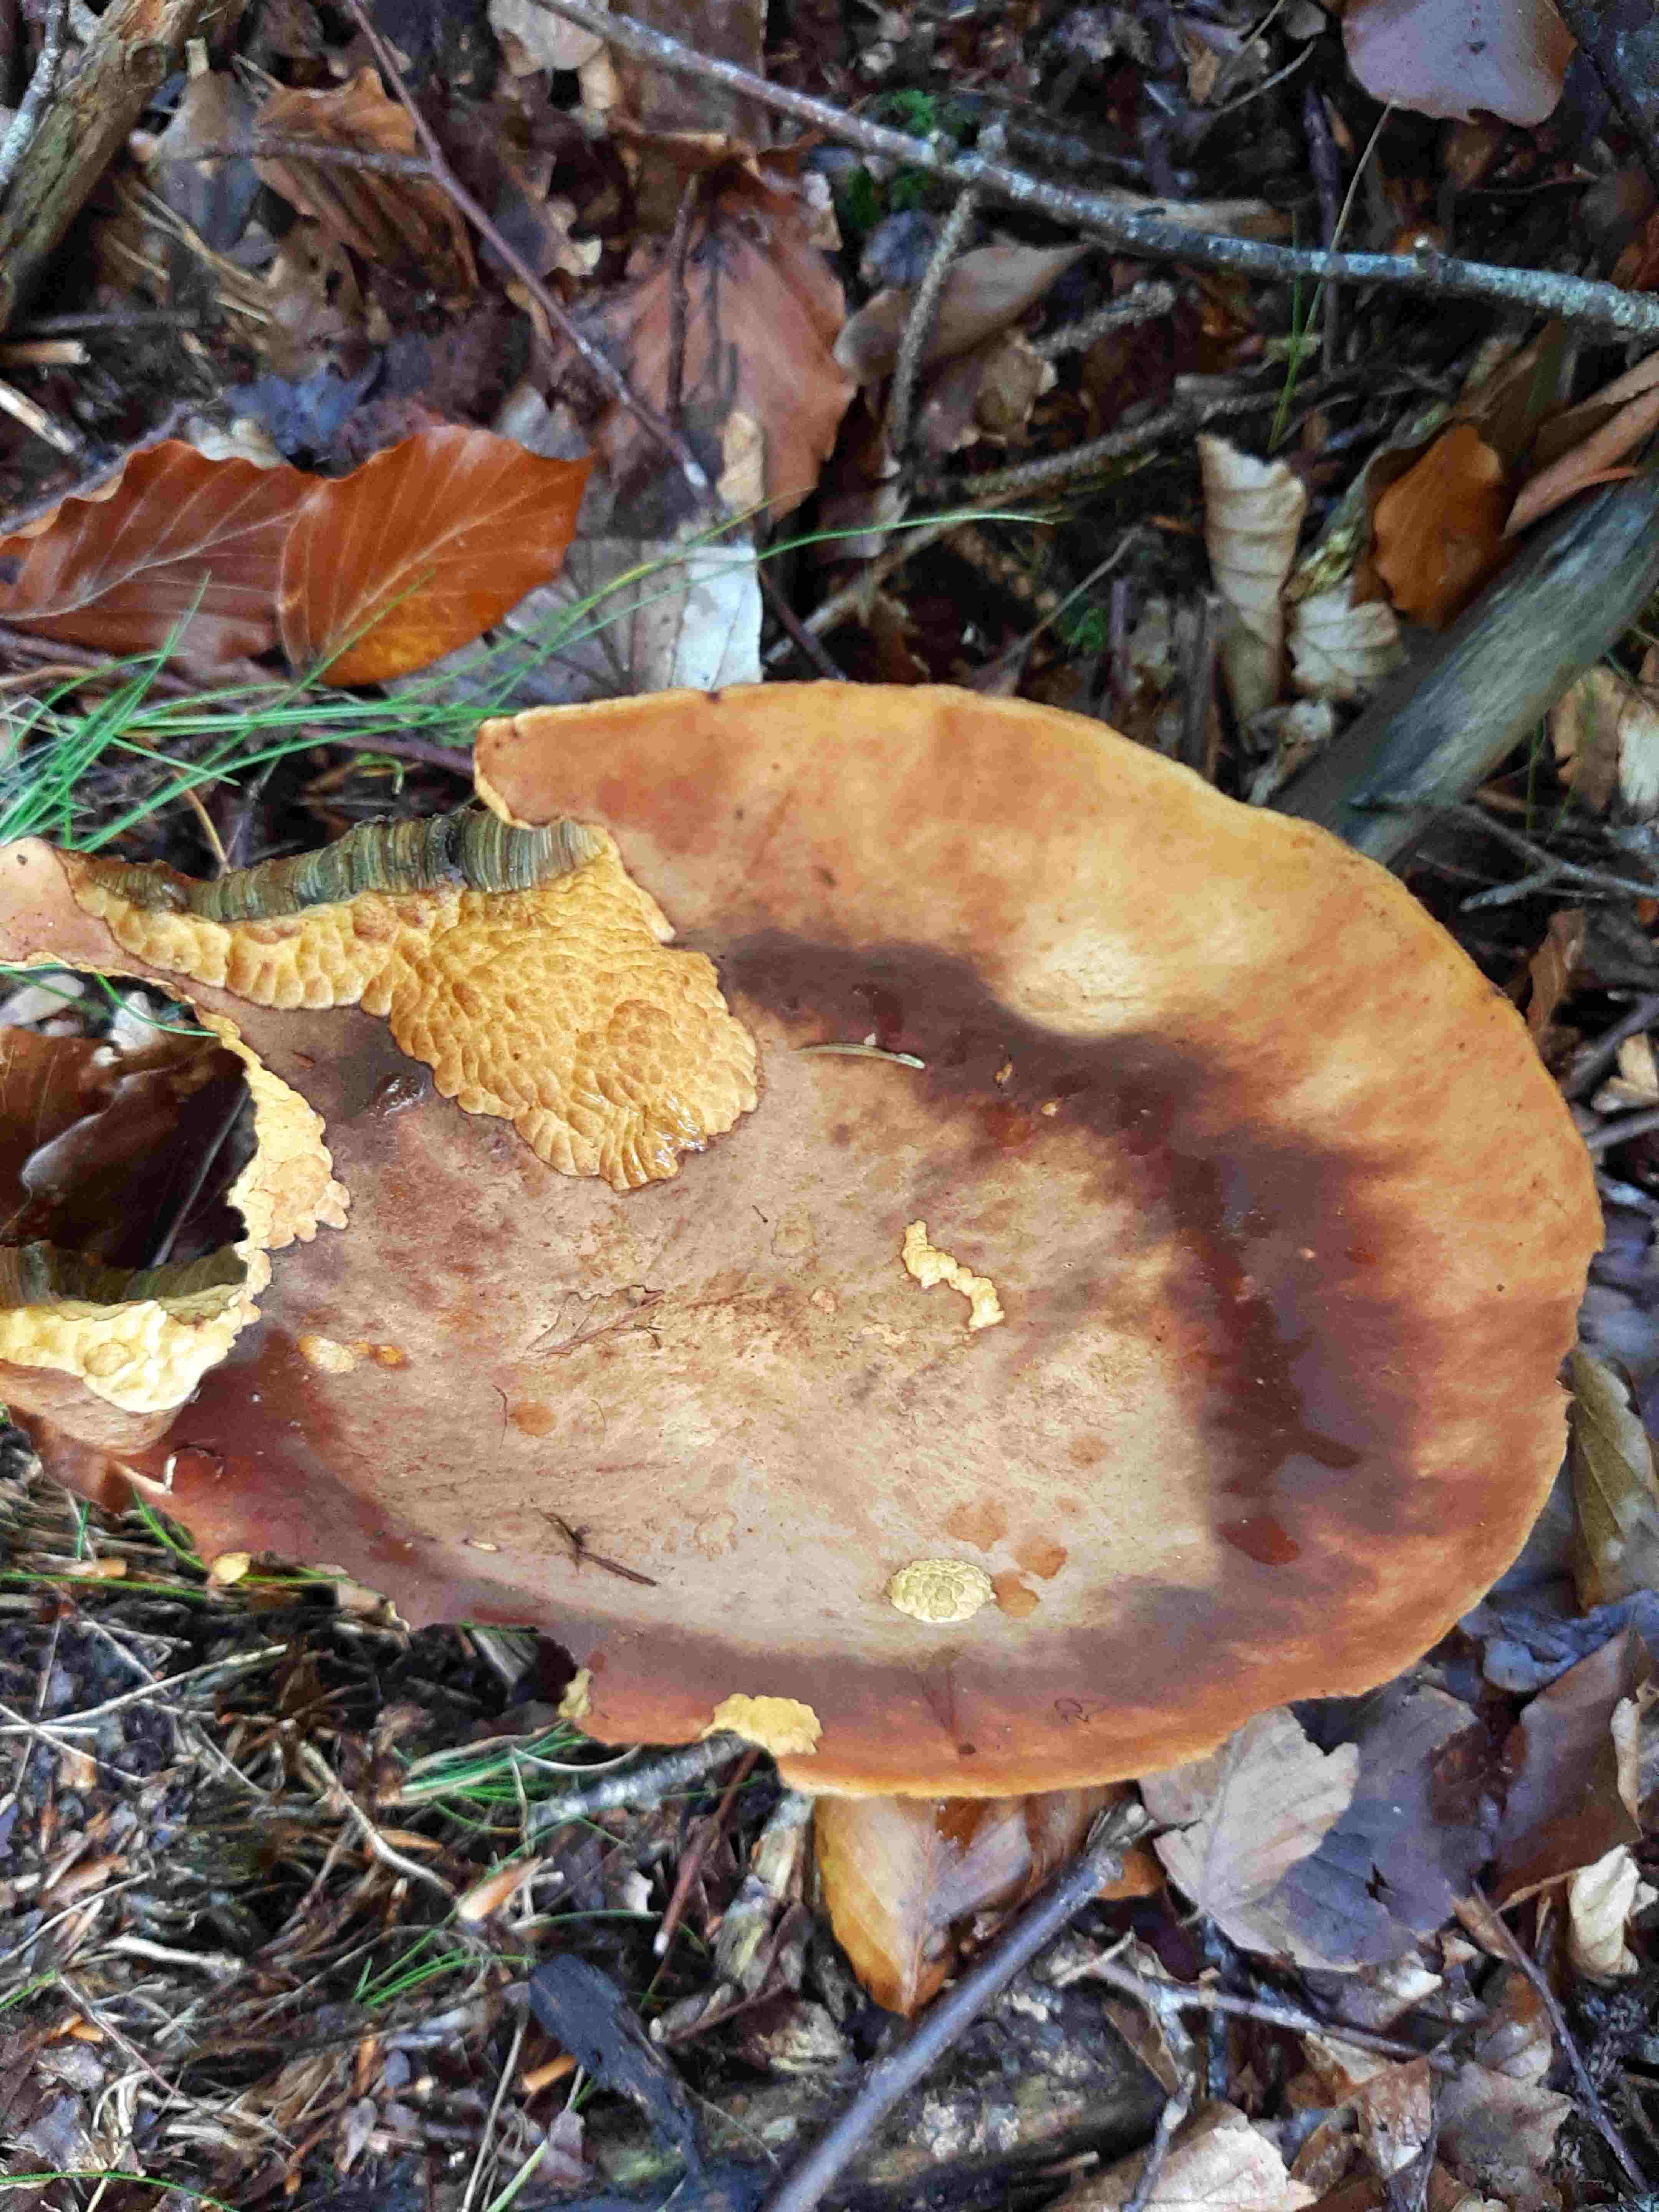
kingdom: Fungi
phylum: Basidiomycota
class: Agaricomycetes
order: Boletales
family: Boletaceae
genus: Neoboletus
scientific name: Neoboletus erythropus
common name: punktstokket indigorørhat
